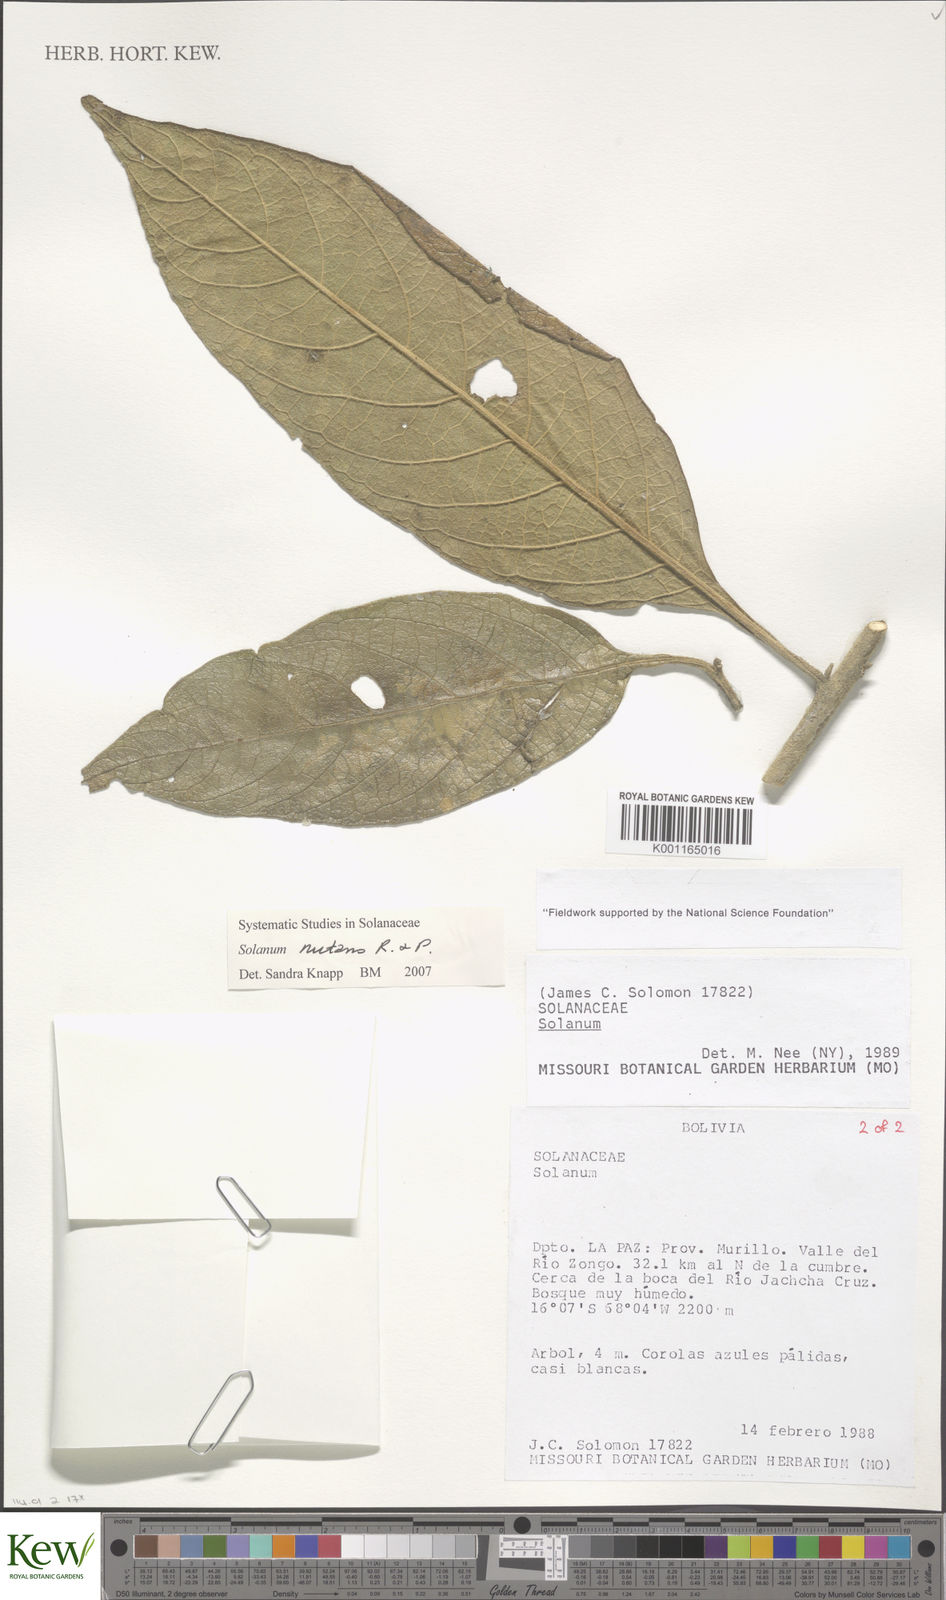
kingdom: Plantae
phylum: Tracheophyta
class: Magnoliopsida
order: Solanales
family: Solanaceae
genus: Solanum
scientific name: Solanum nutans
